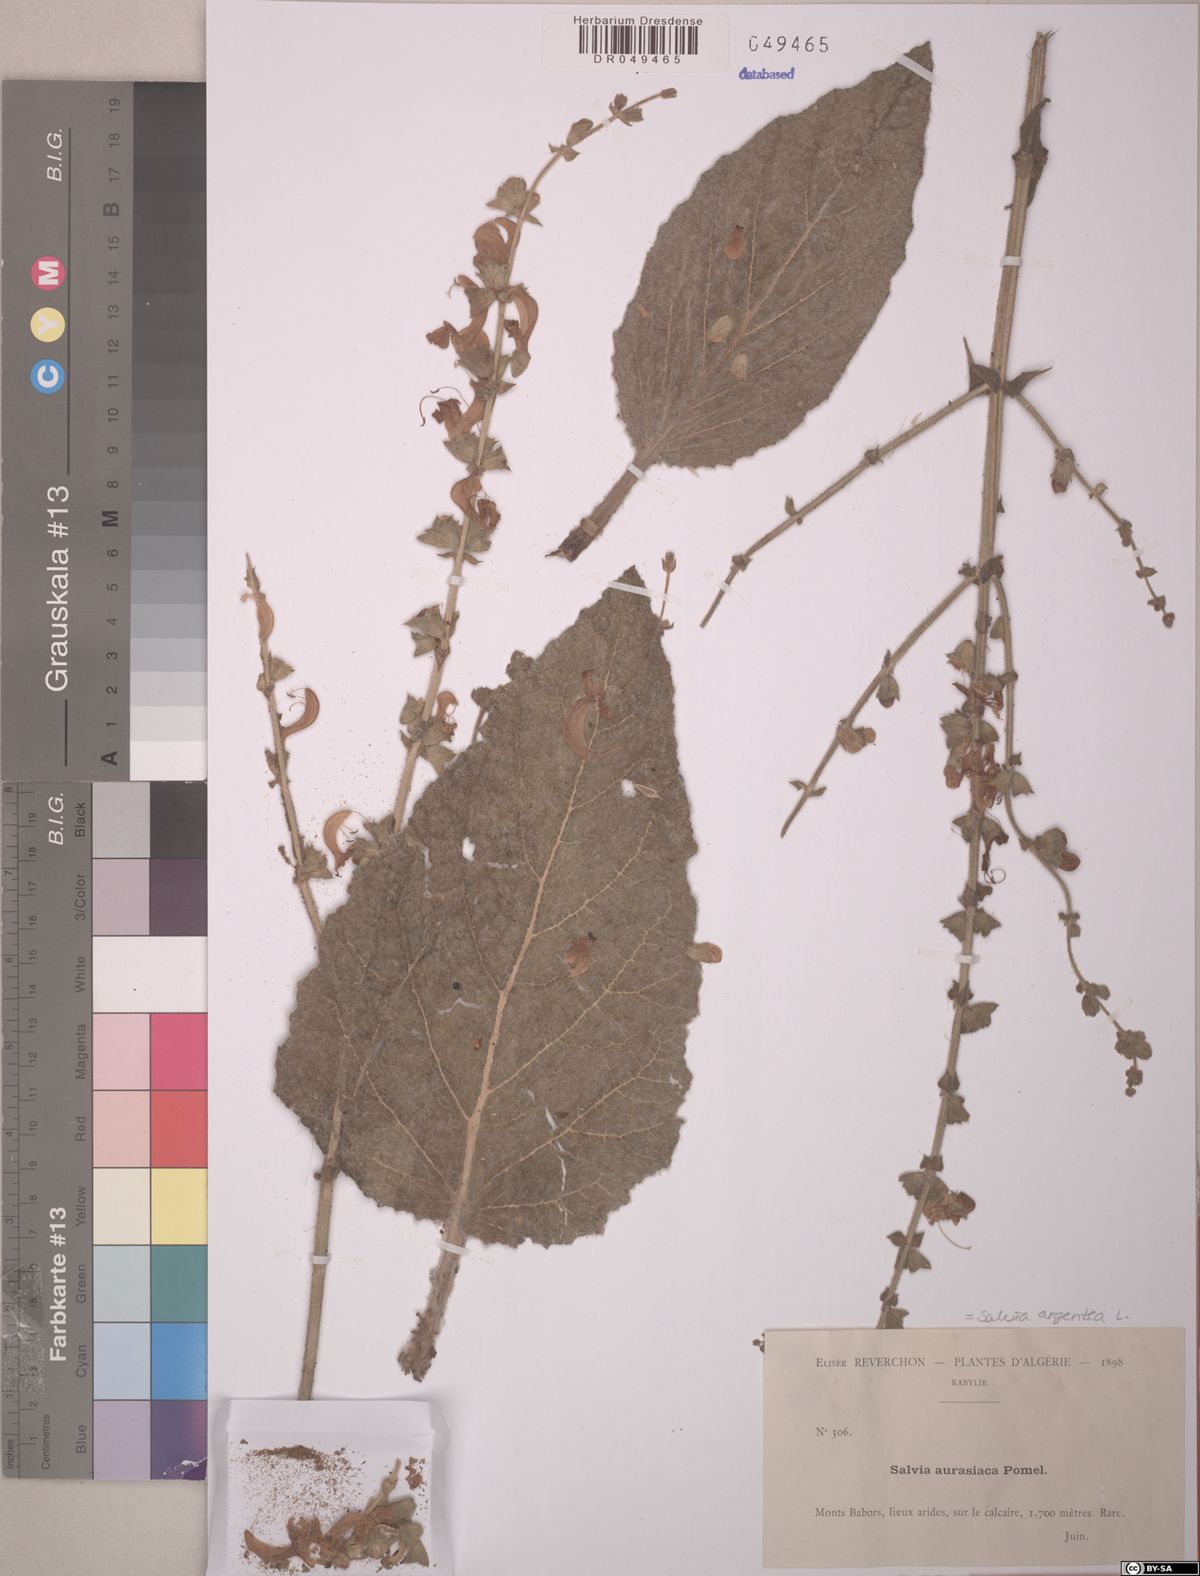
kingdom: Plantae
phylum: Tracheophyta
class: Magnoliopsida
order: Lamiales
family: Lamiaceae
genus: Salvia
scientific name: Salvia argentea
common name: Silver sage
